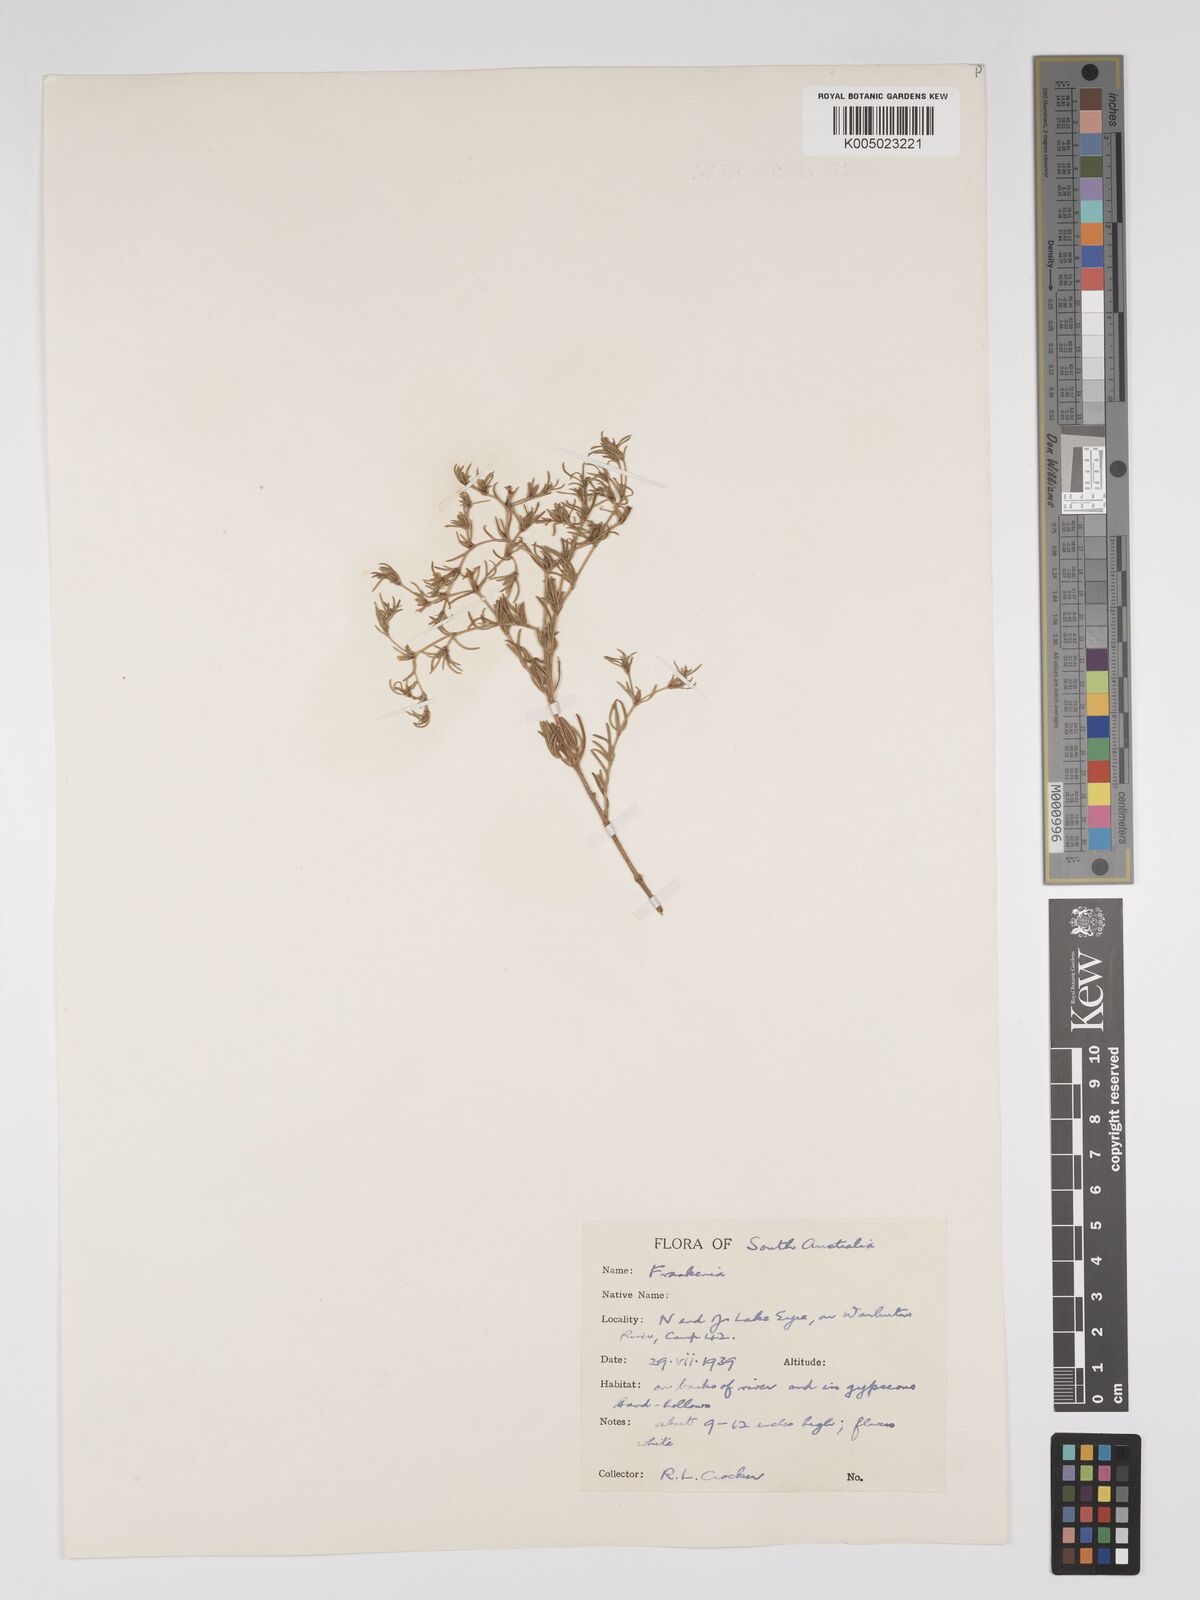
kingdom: Plantae
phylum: Tracheophyta
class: Magnoliopsida
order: Caryophyllales
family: Frankeniaceae
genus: Frankenia
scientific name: Frankenia
